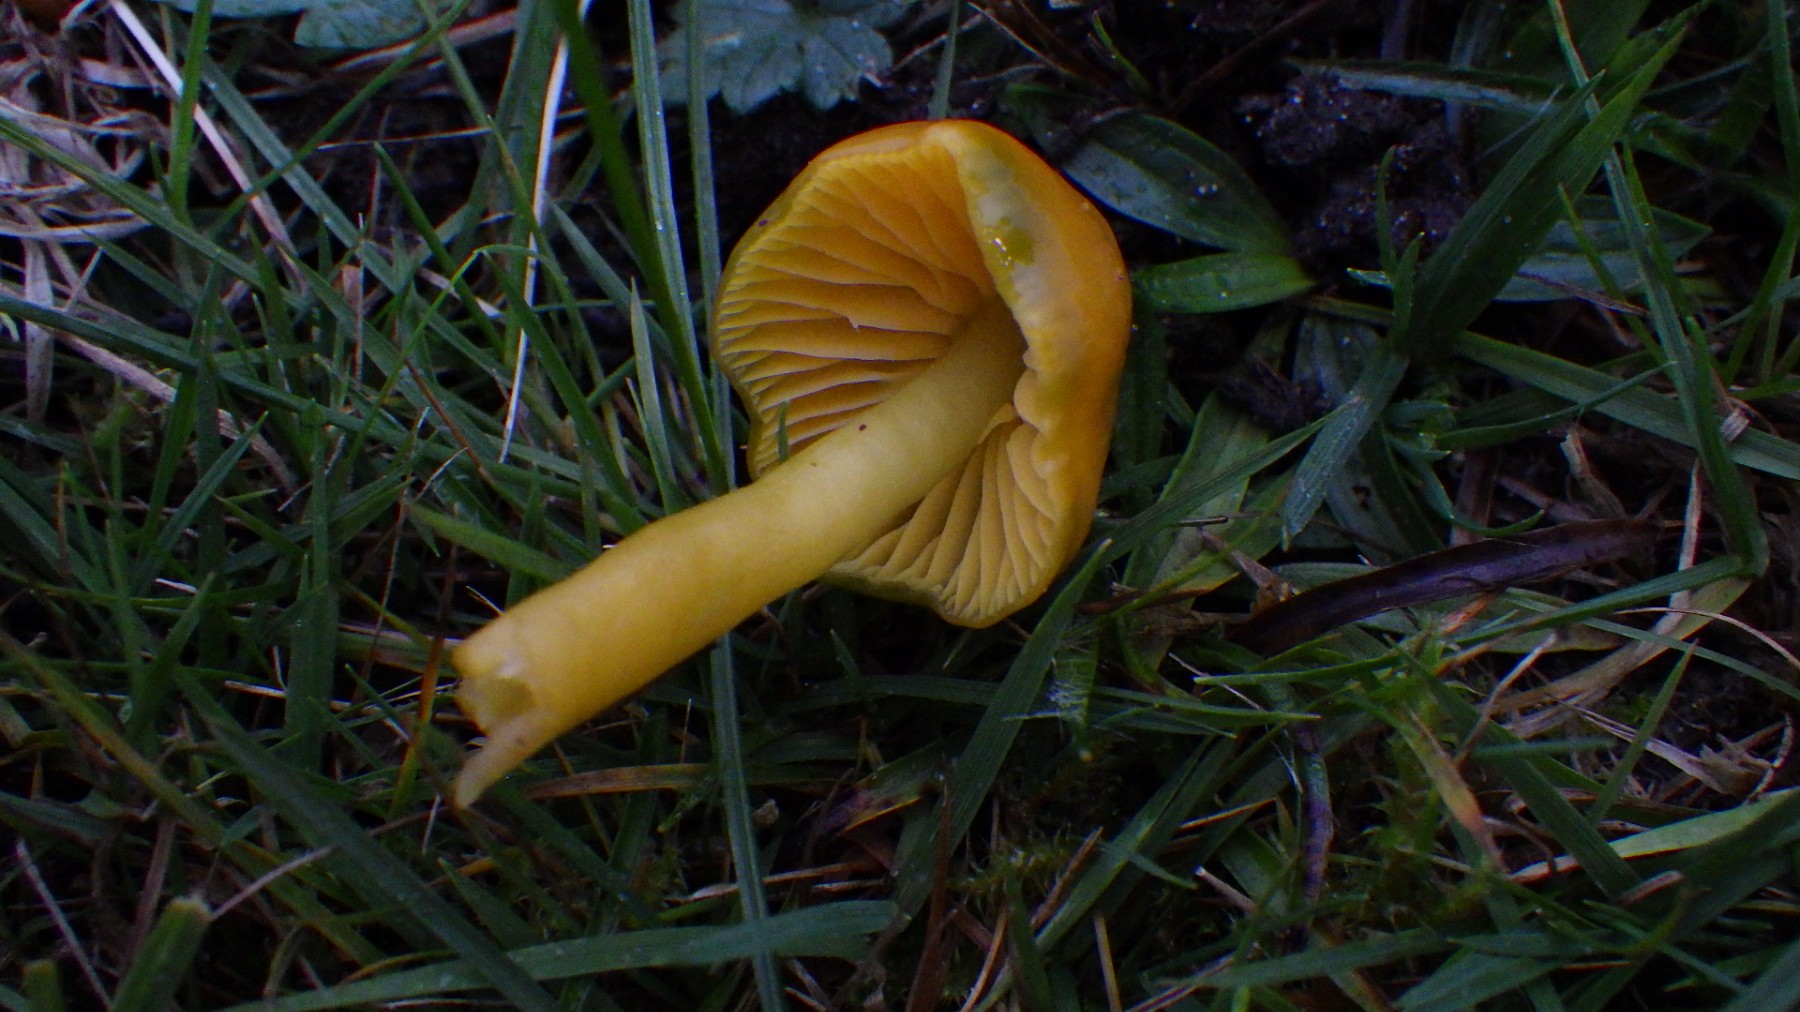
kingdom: Fungi
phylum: Basidiomycota
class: Agaricomycetes
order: Agaricales
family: Hygrophoraceae
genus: Gliophorus
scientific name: Gliophorus psittacinus
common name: papegøje-vokshat
